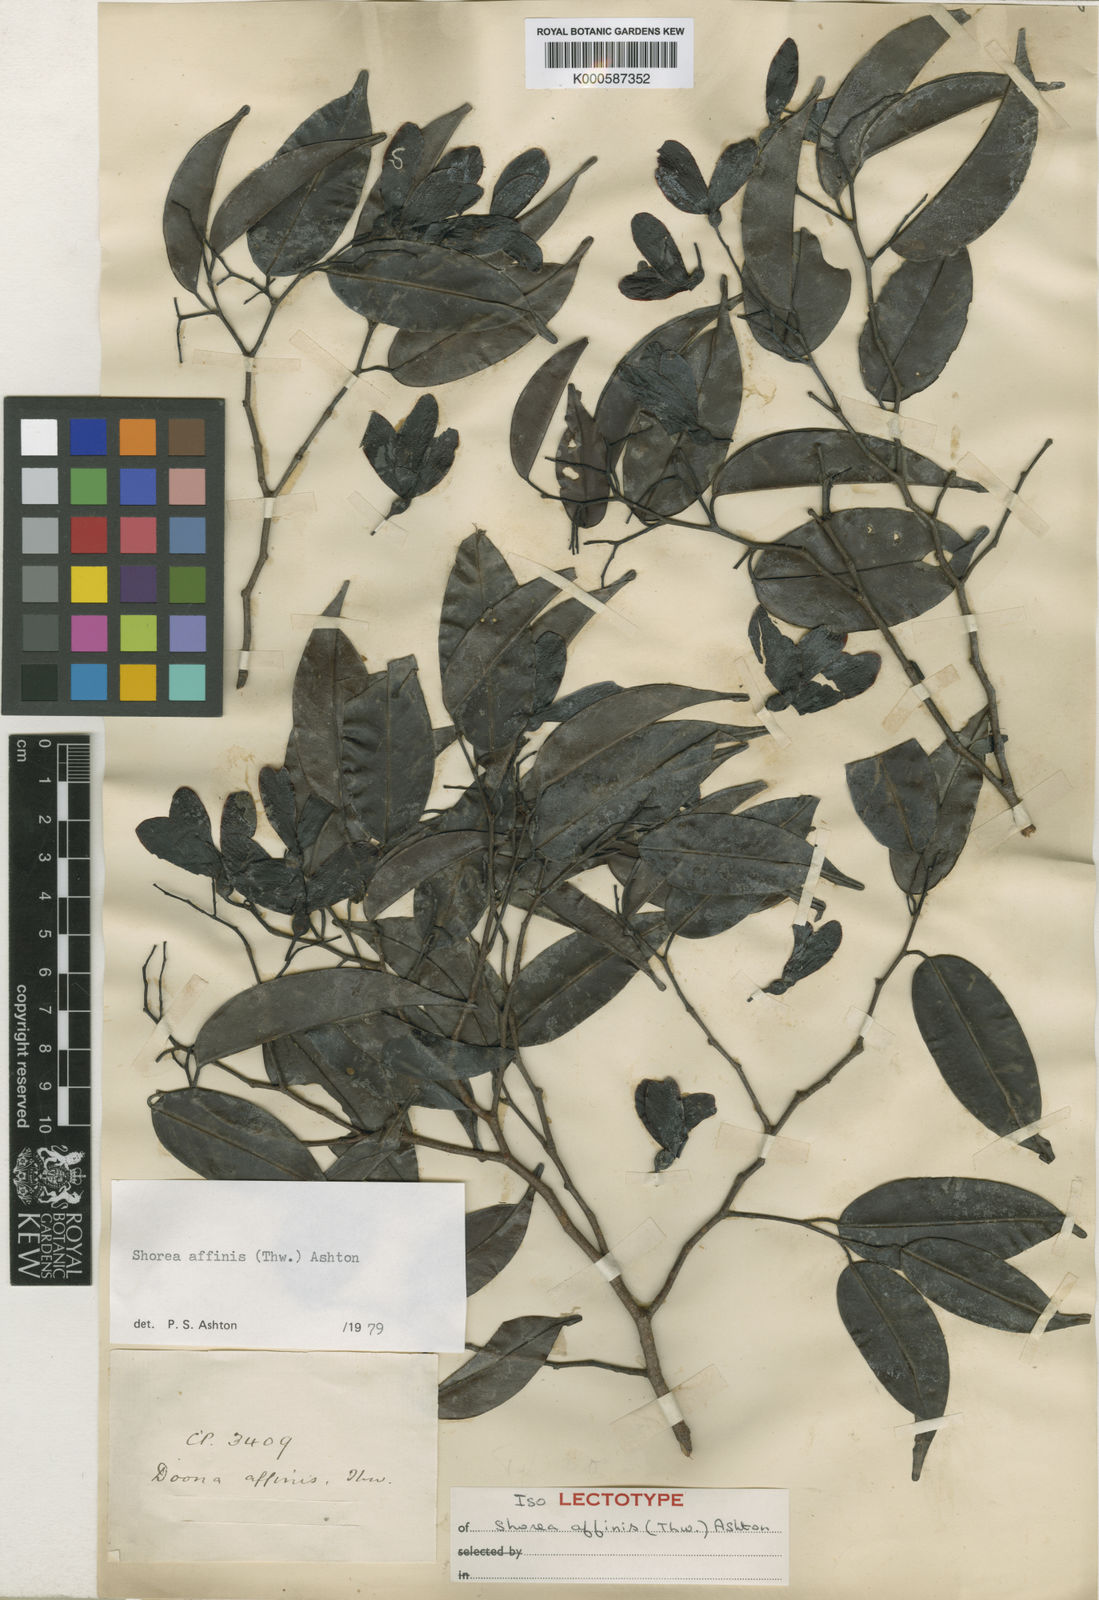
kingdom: Plantae
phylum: Tracheophyta
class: Magnoliopsida
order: Malvales
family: Dipterocarpaceae
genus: Doona
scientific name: Doona affinis
